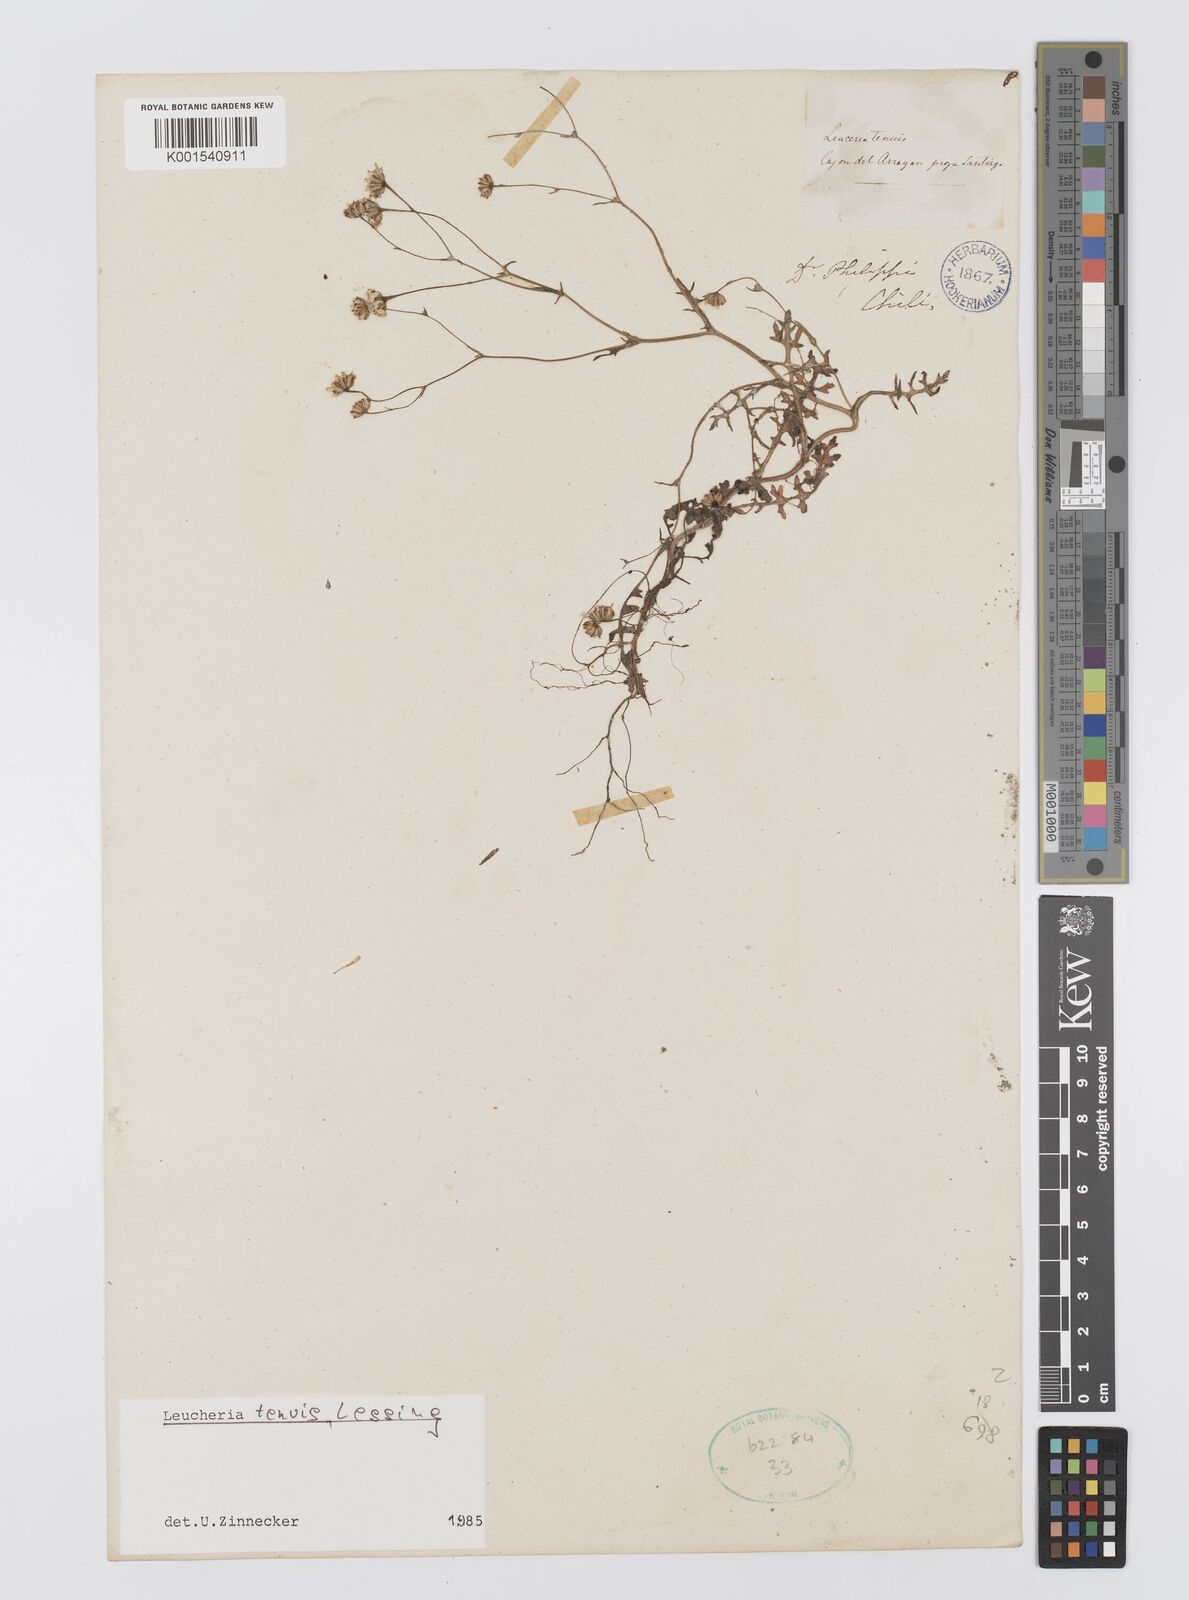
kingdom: Plantae
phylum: Tracheophyta
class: Magnoliopsida
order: Asterales
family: Asteraceae
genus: Leucheria
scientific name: Leucheria tenuis
